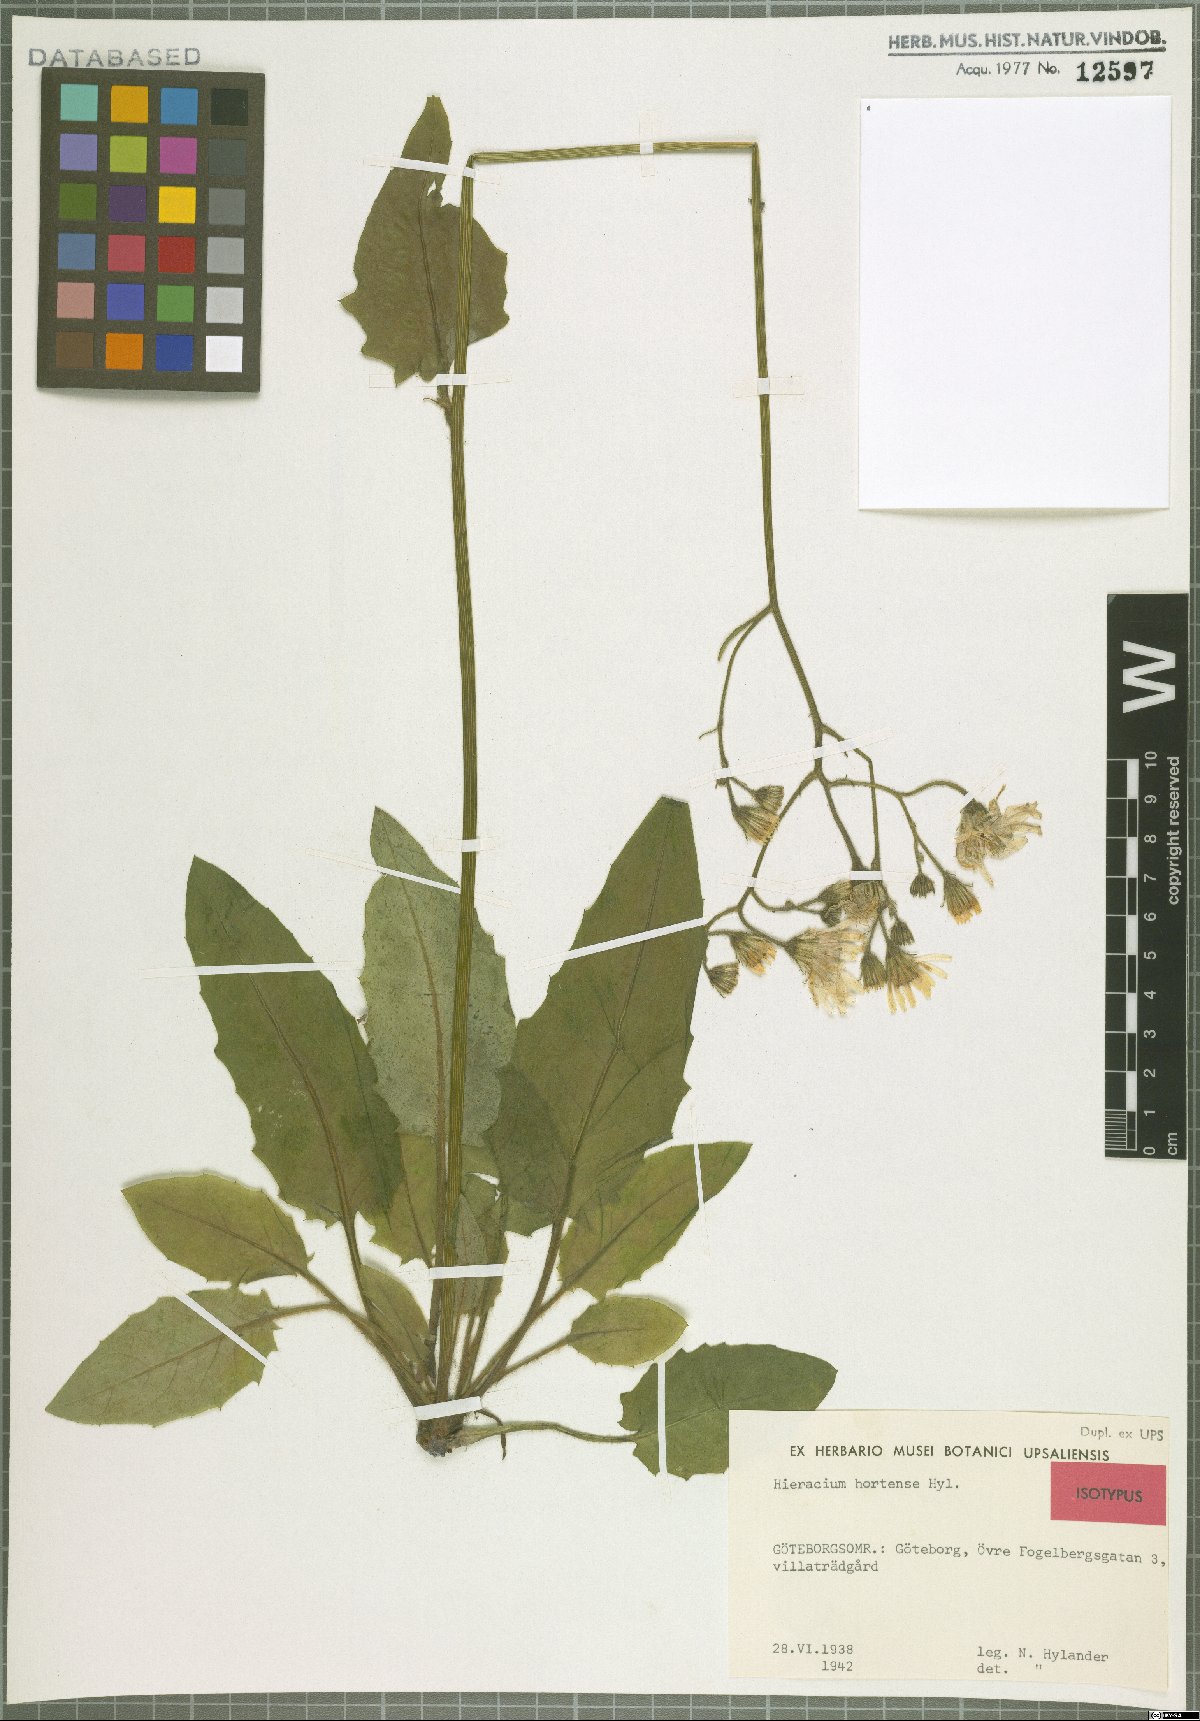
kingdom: Plantae
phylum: Tracheophyta
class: Magnoliopsida
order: Asterales
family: Asteraceae
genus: Hieracium
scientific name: Hieracium hortense
